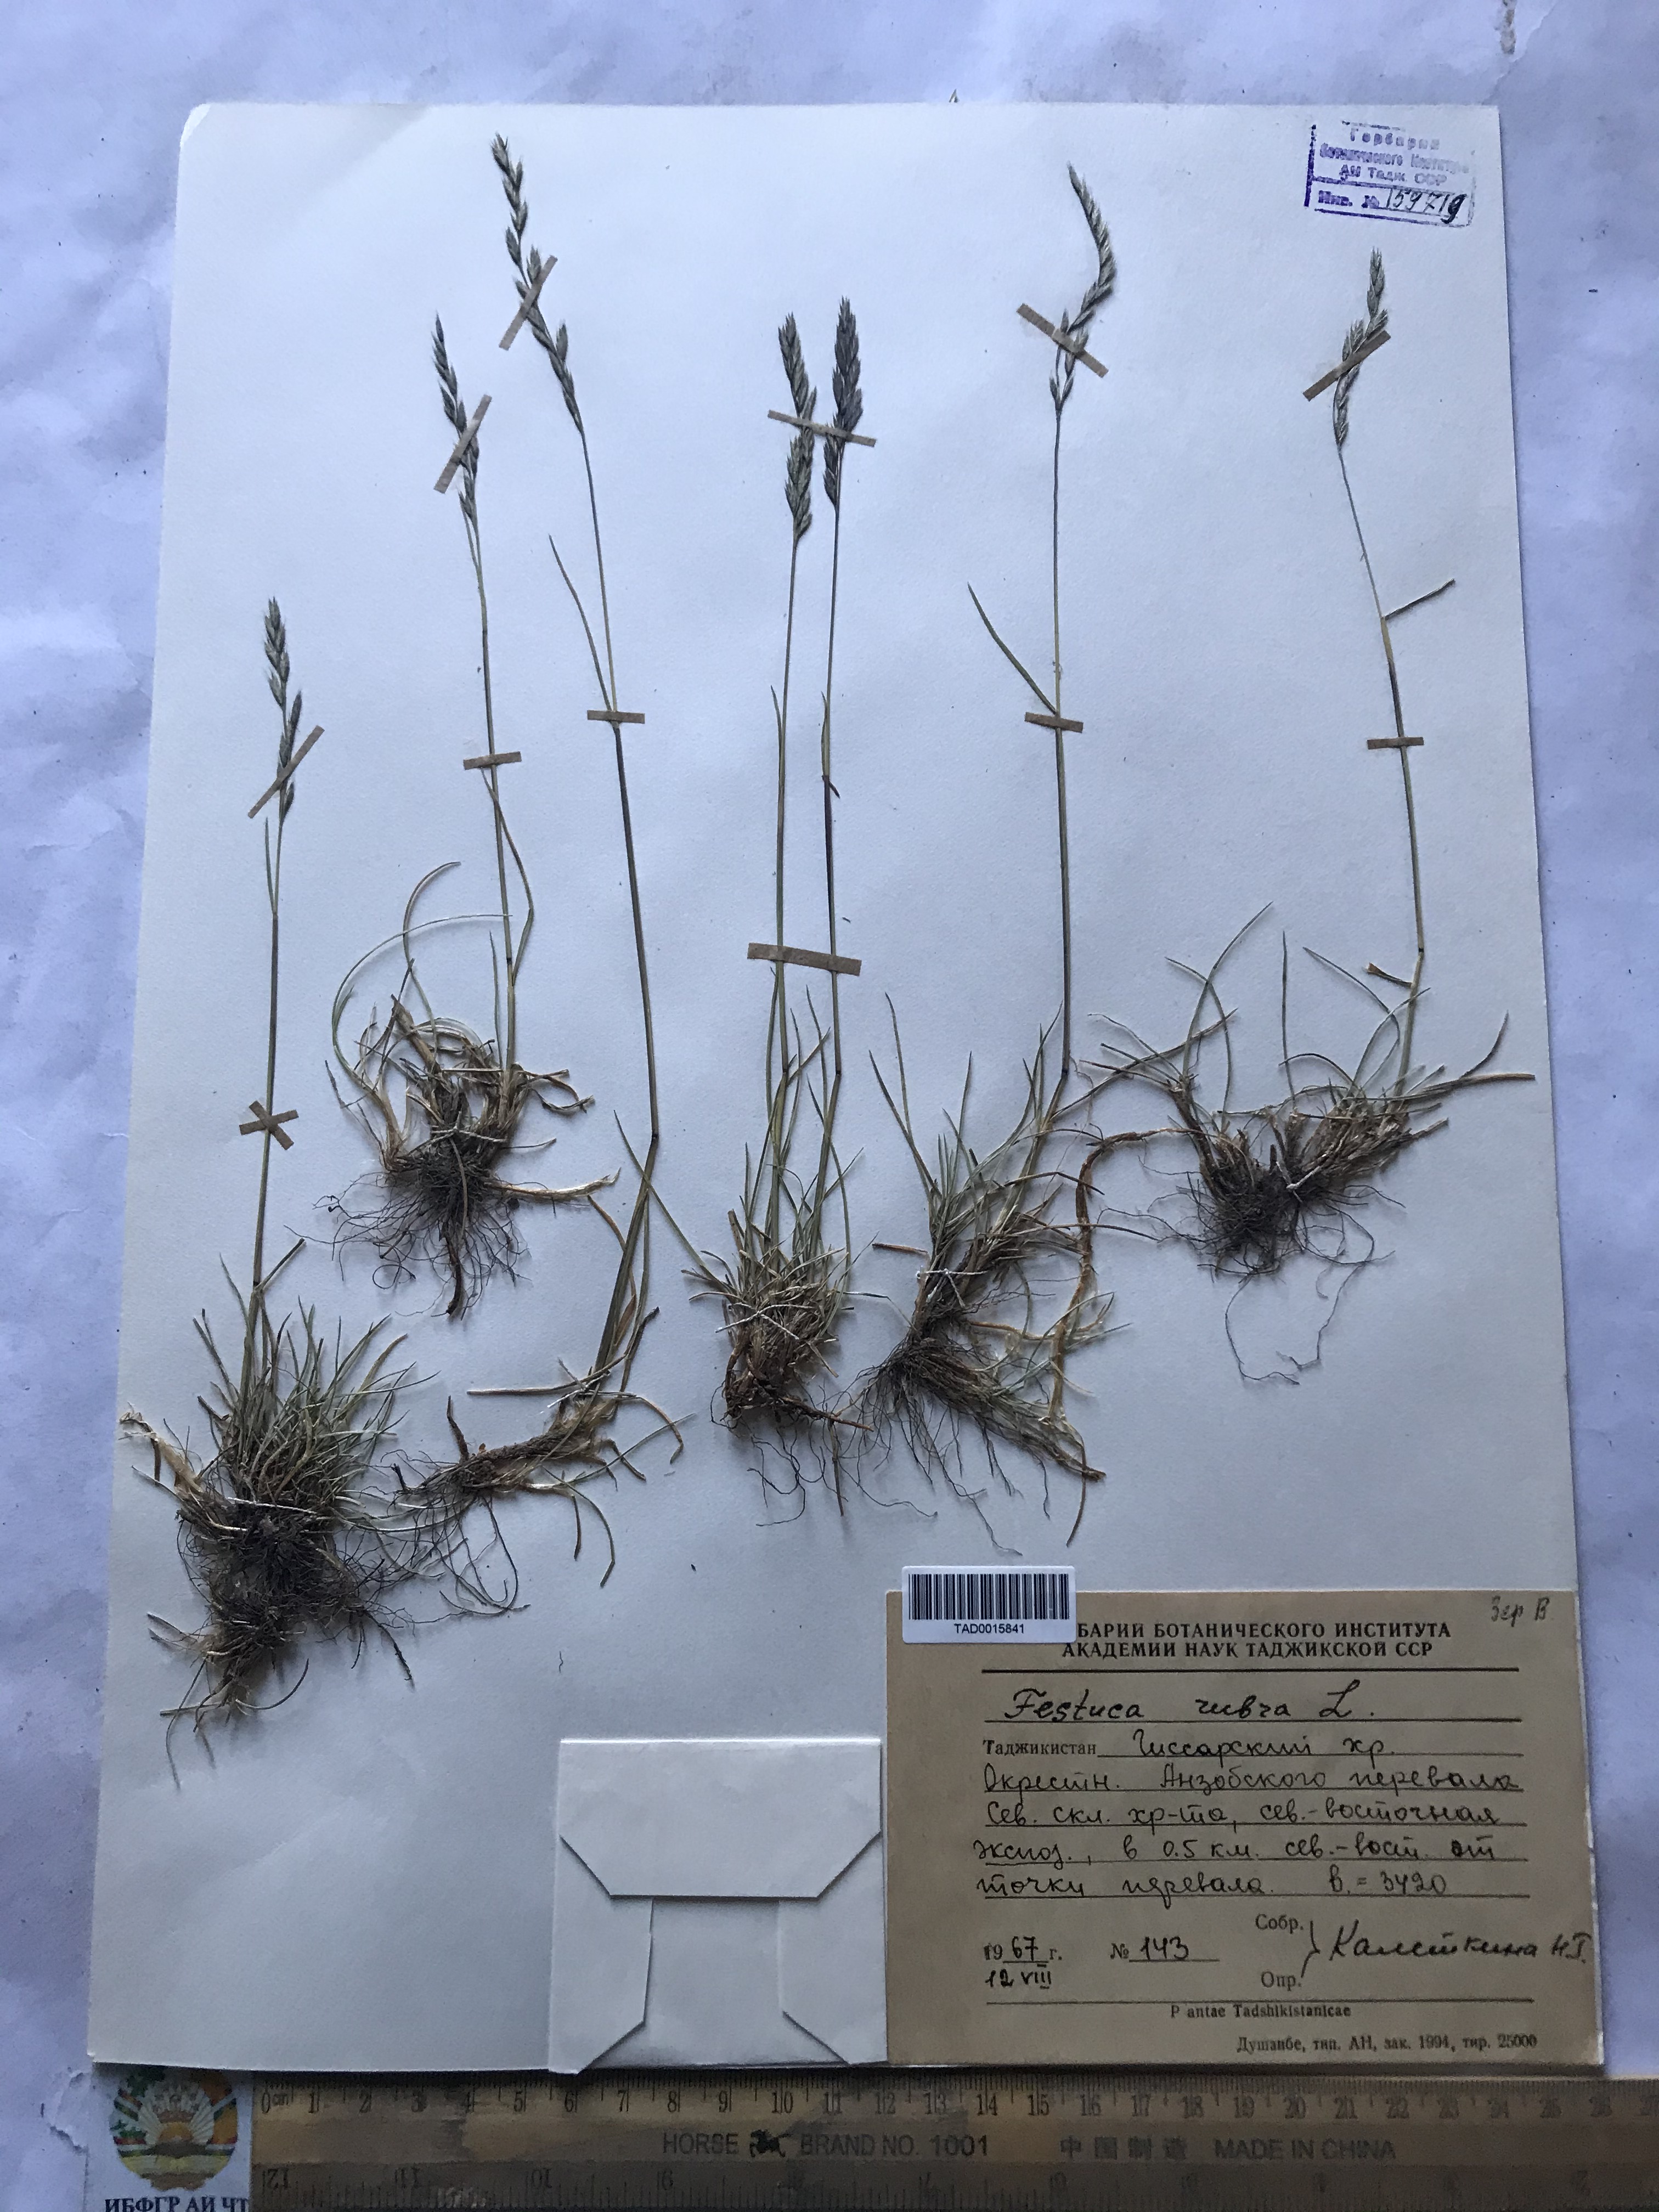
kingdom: Plantae
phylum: Tracheophyta
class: Liliopsida
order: Poales
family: Poaceae
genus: Festuca
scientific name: Festuca rubra
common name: Red fescue
